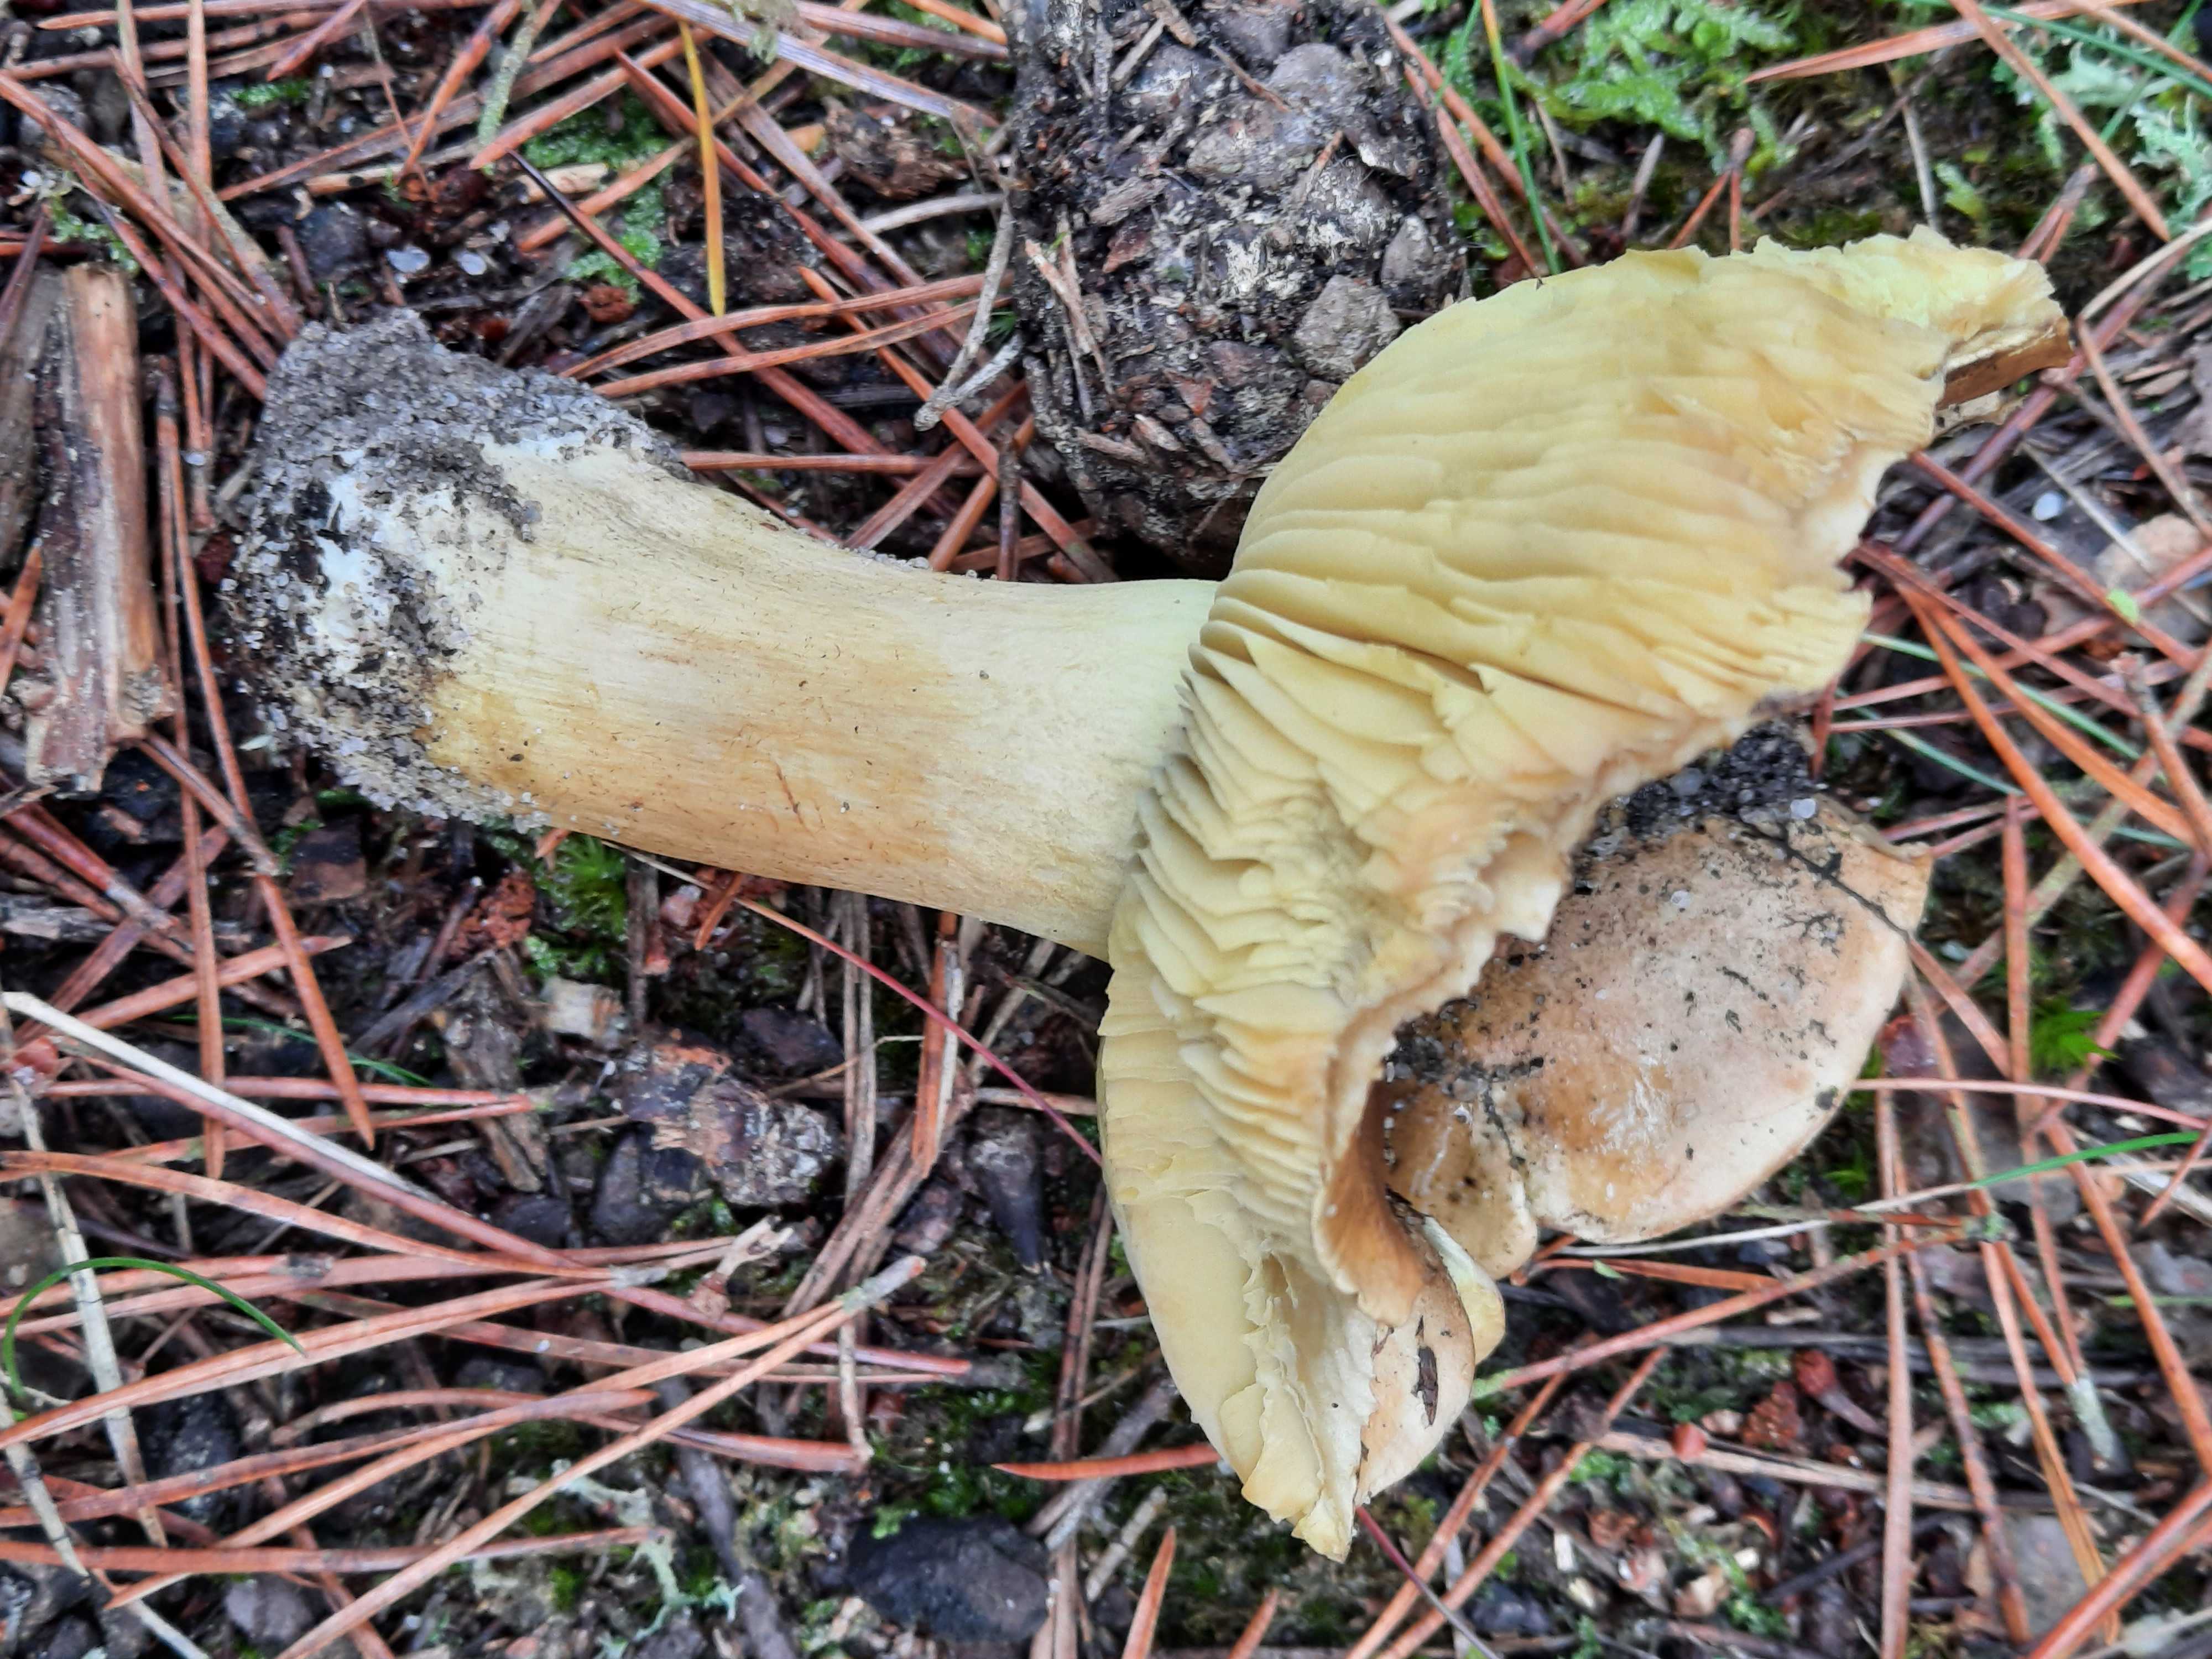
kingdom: Fungi
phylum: Basidiomycota
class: Agaricomycetes
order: Agaricales
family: Tricholomataceae
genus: Tricholoma
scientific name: Tricholoma equestre
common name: ægte ridderhat
